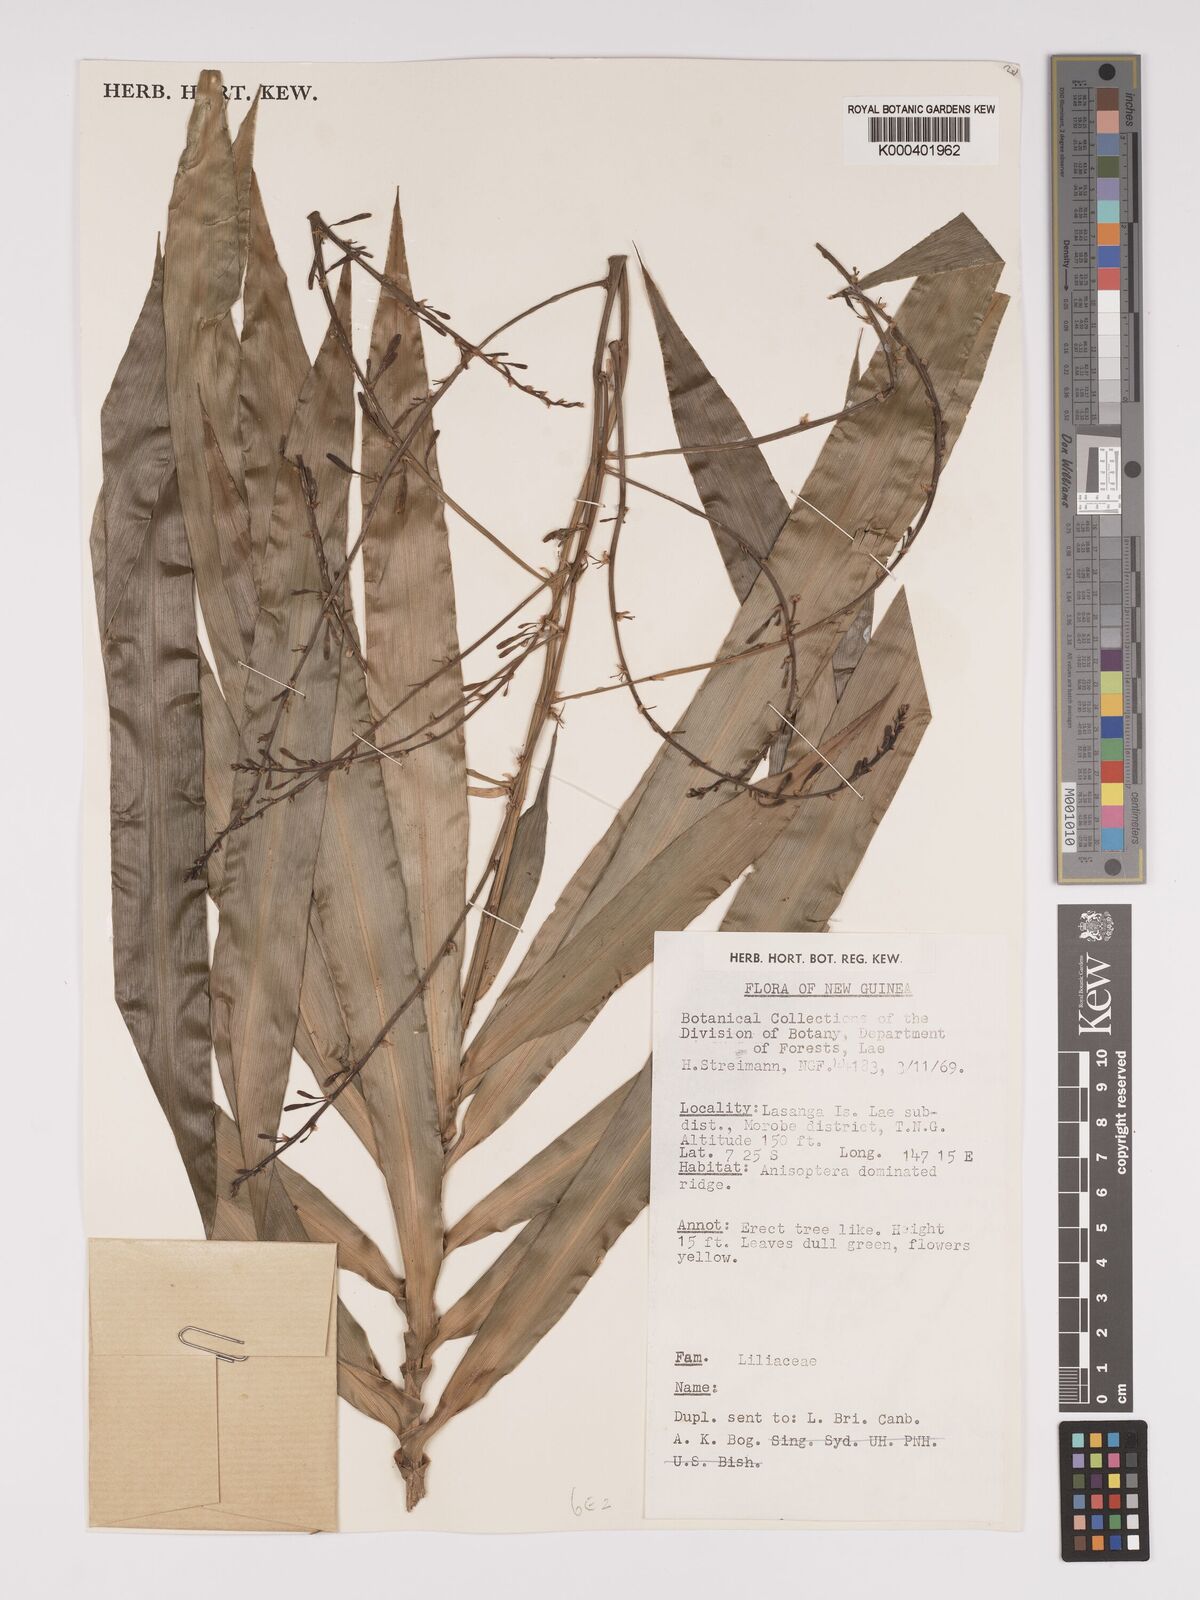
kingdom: Plantae
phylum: Tracheophyta
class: Liliopsida
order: Asparagales
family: Asparagaceae
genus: Dracaena
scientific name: Dracaena angustifolia
